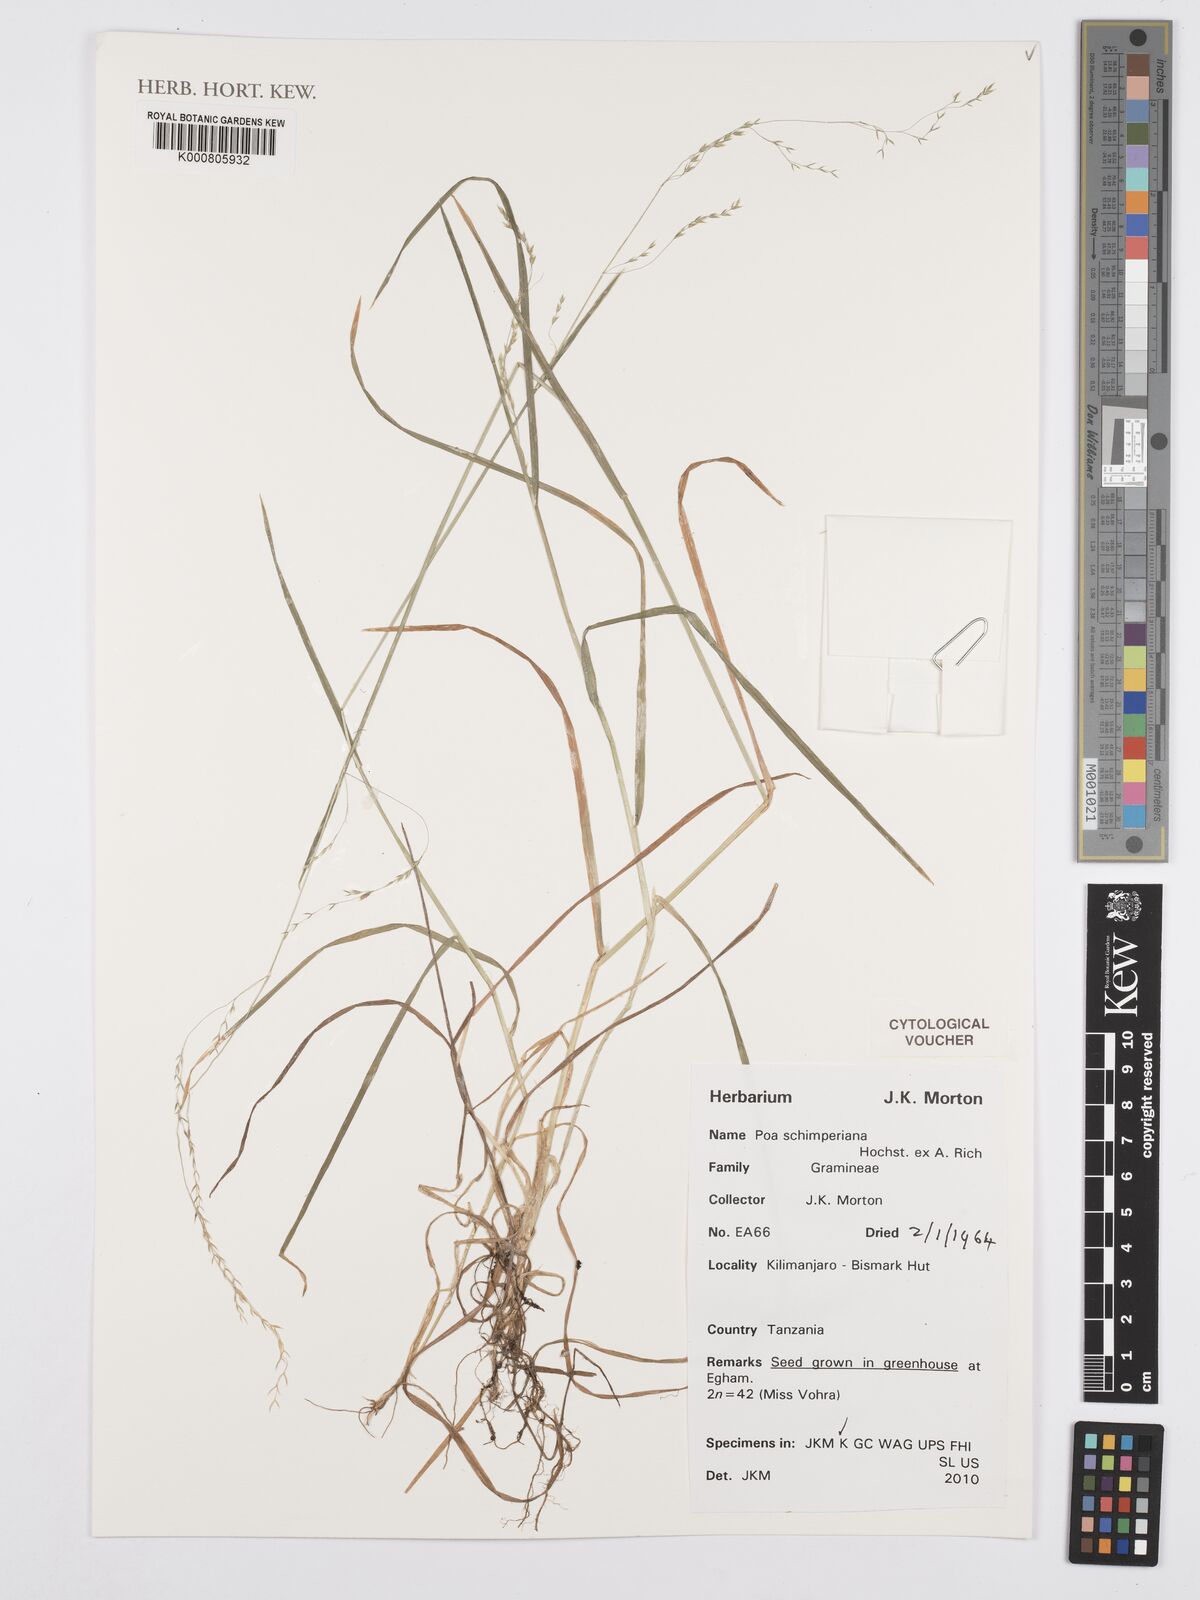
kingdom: Plantae
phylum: Tracheophyta
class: Liliopsida
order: Poales
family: Poaceae
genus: Poa
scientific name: Poa schimperiana
